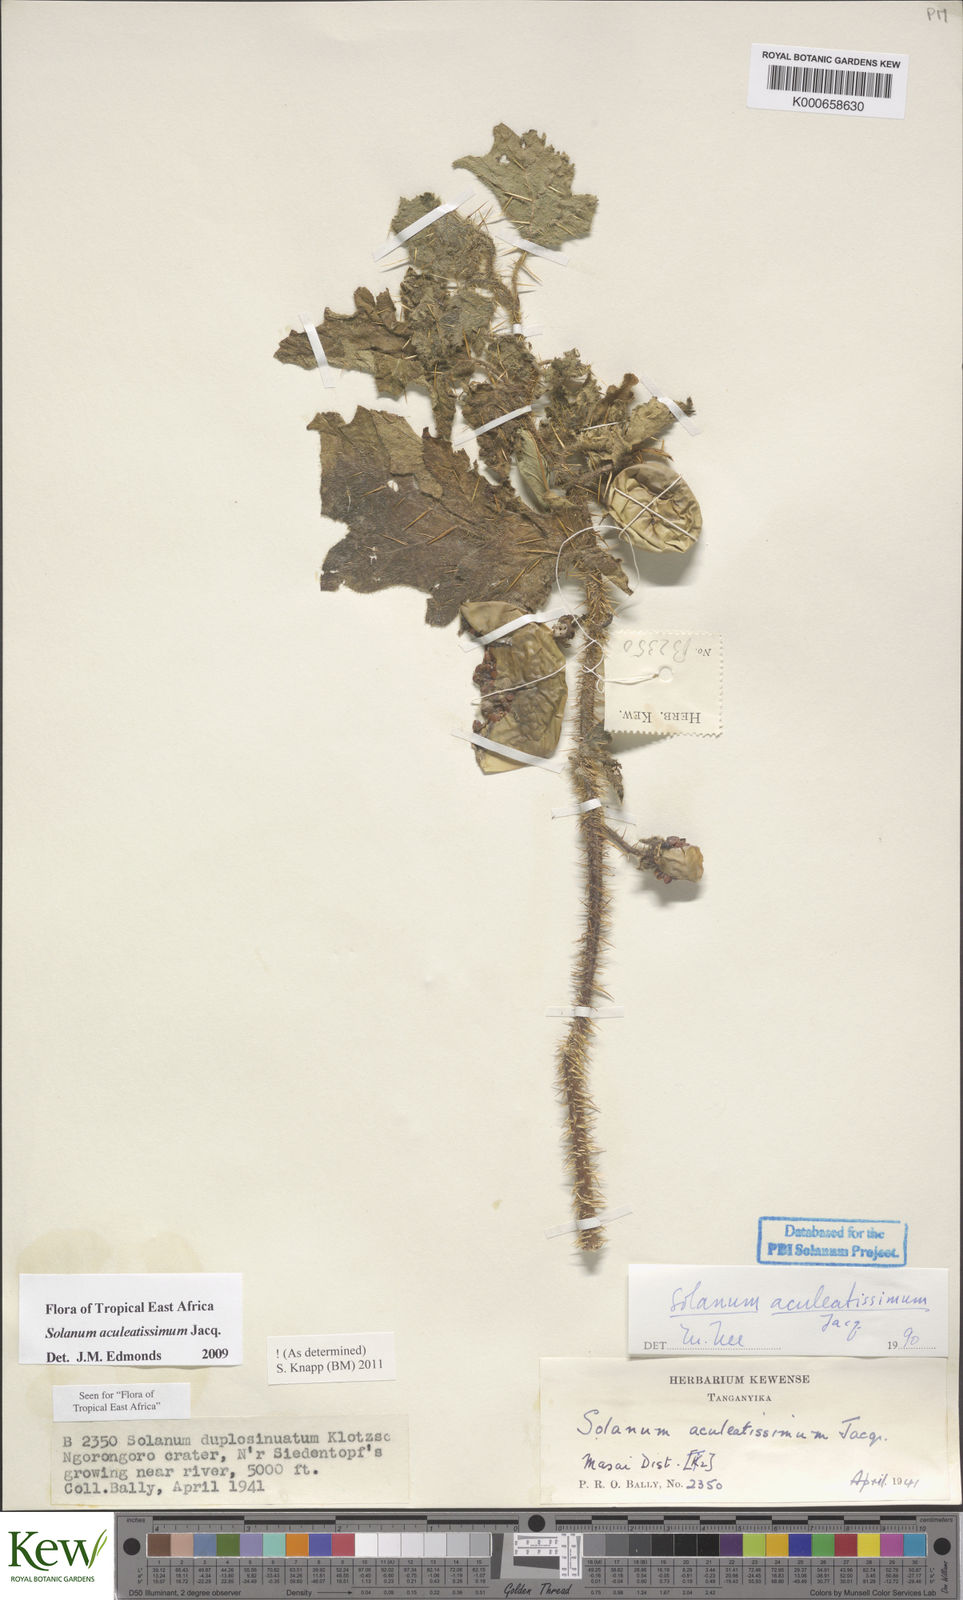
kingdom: Plantae
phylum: Tracheophyta
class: Magnoliopsida
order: Solanales
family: Solanaceae
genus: Solanum
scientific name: Solanum aculeatissimum
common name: Dutch eggplant
